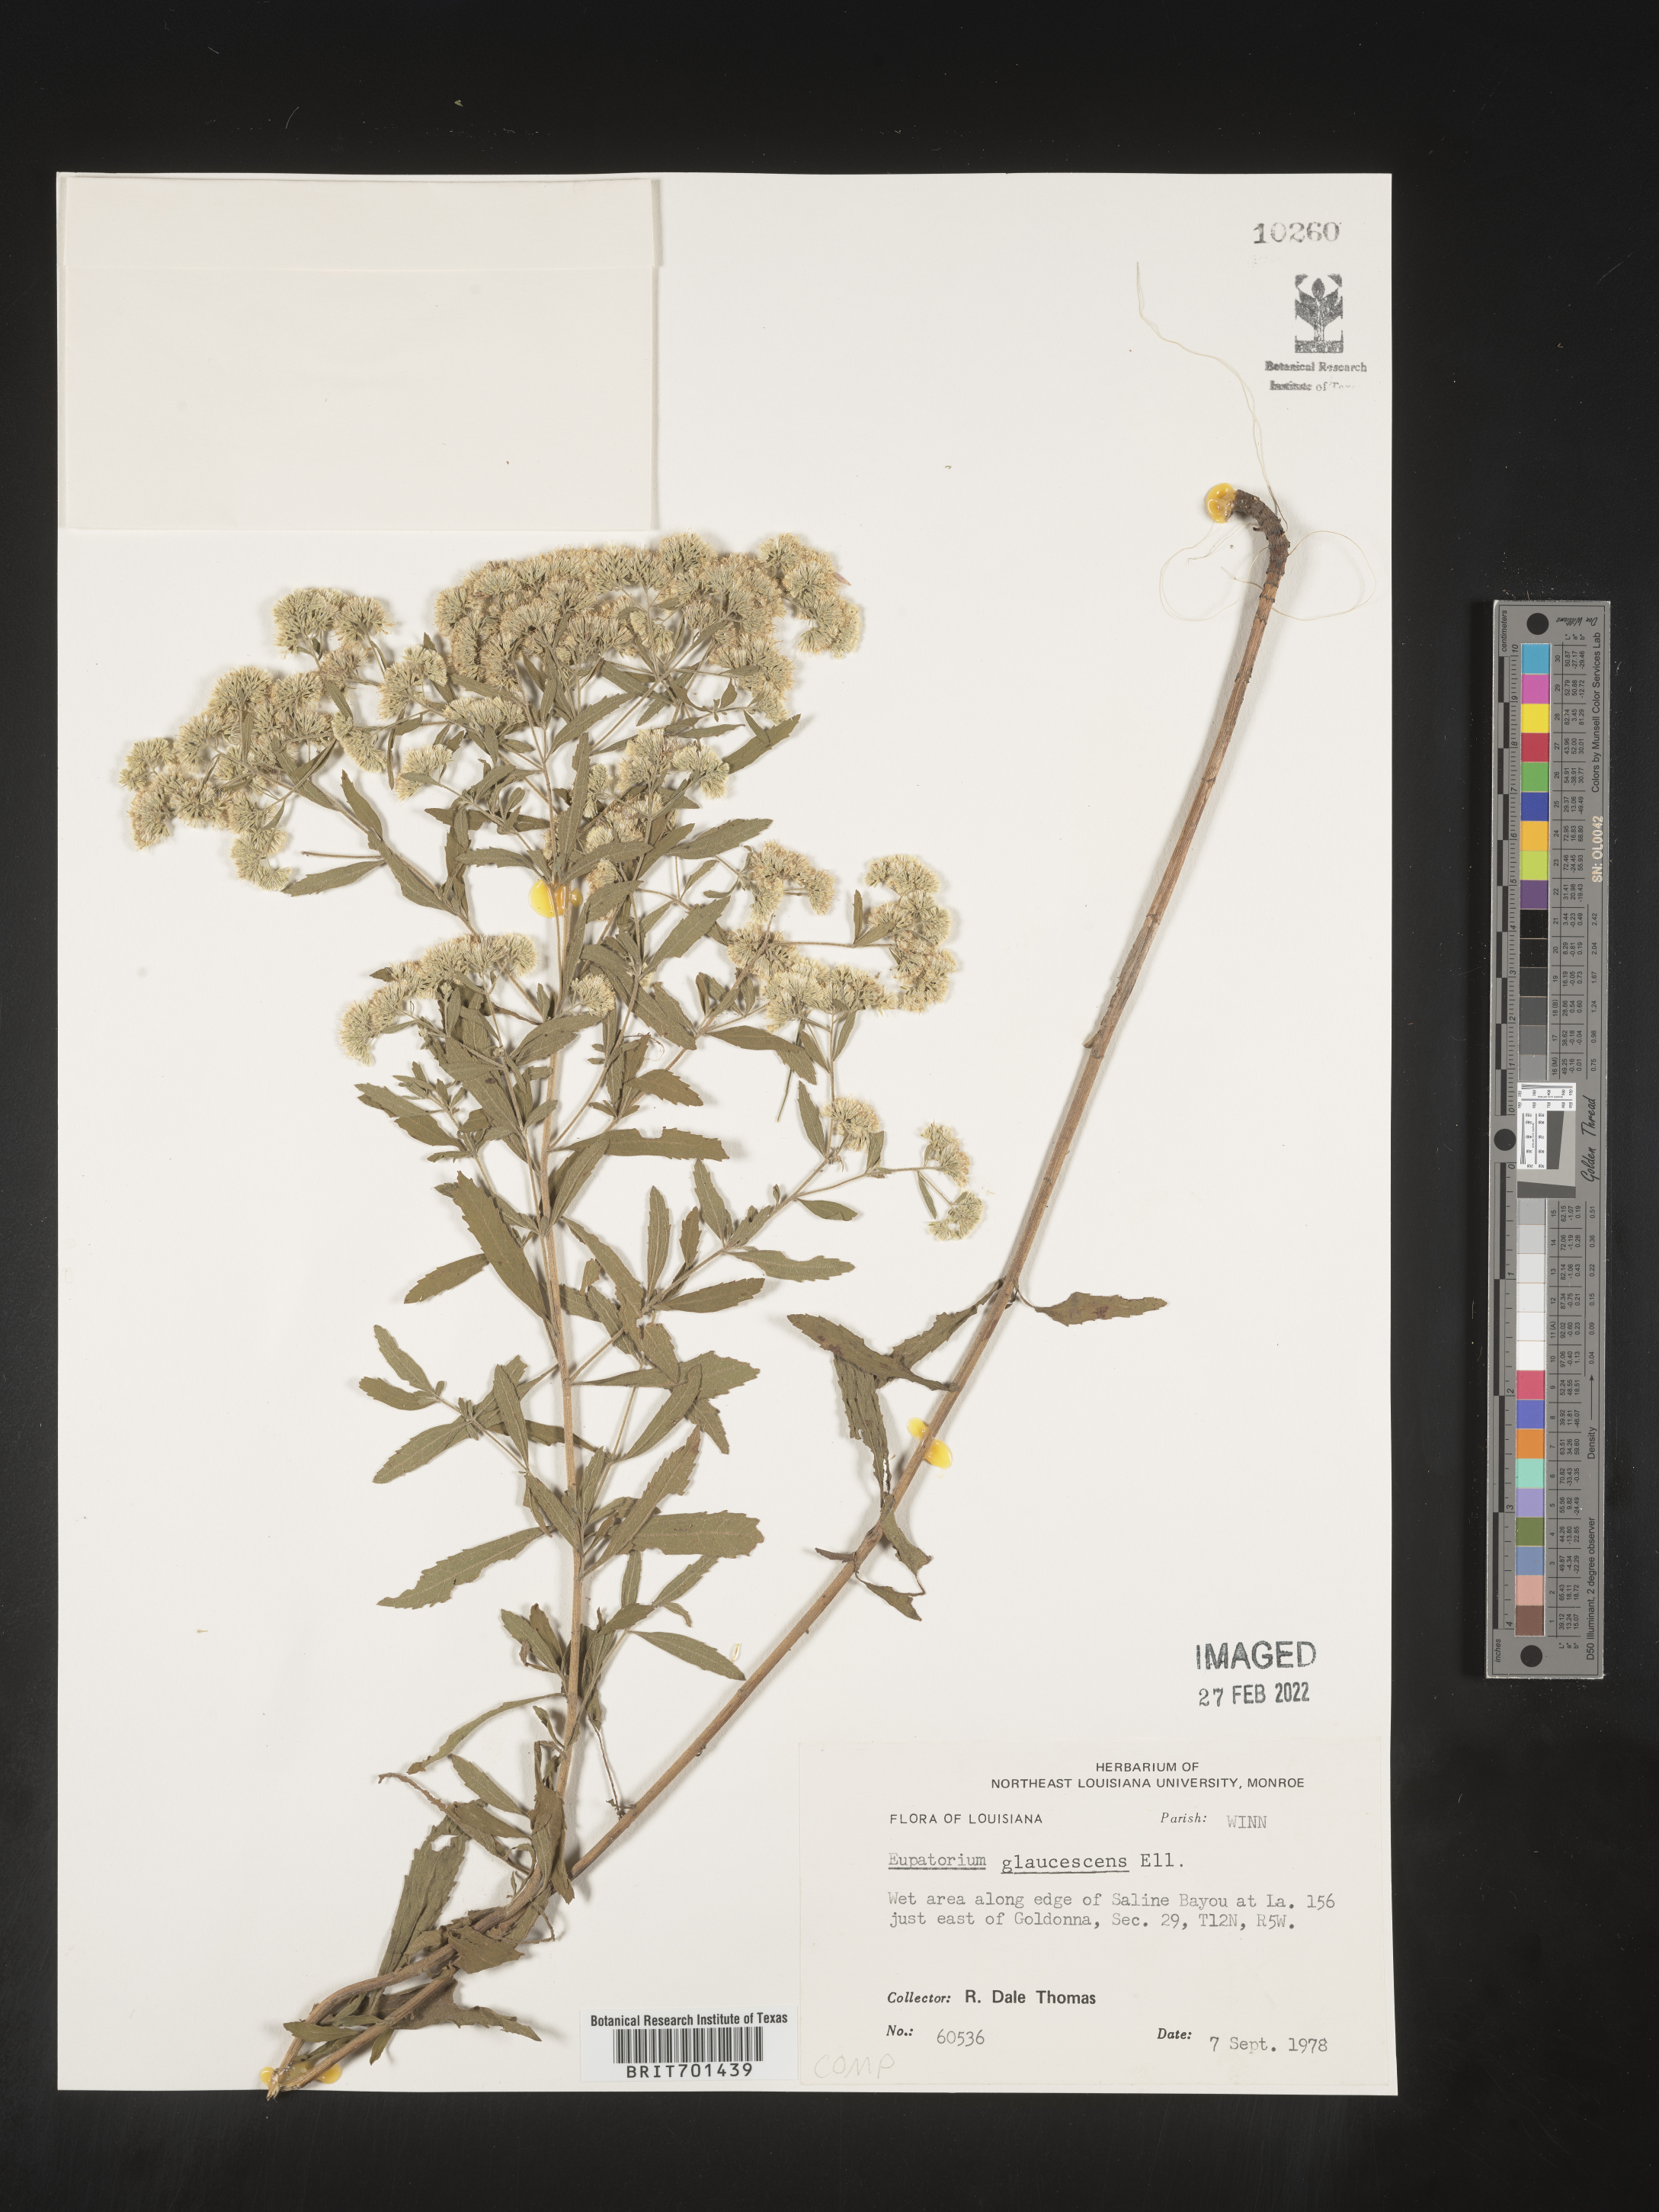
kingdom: Plantae
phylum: Tracheophyta
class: Magnoliopsida
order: Asterales
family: Asteraceae
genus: Eupatorium
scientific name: Eupatorium linearifolium
